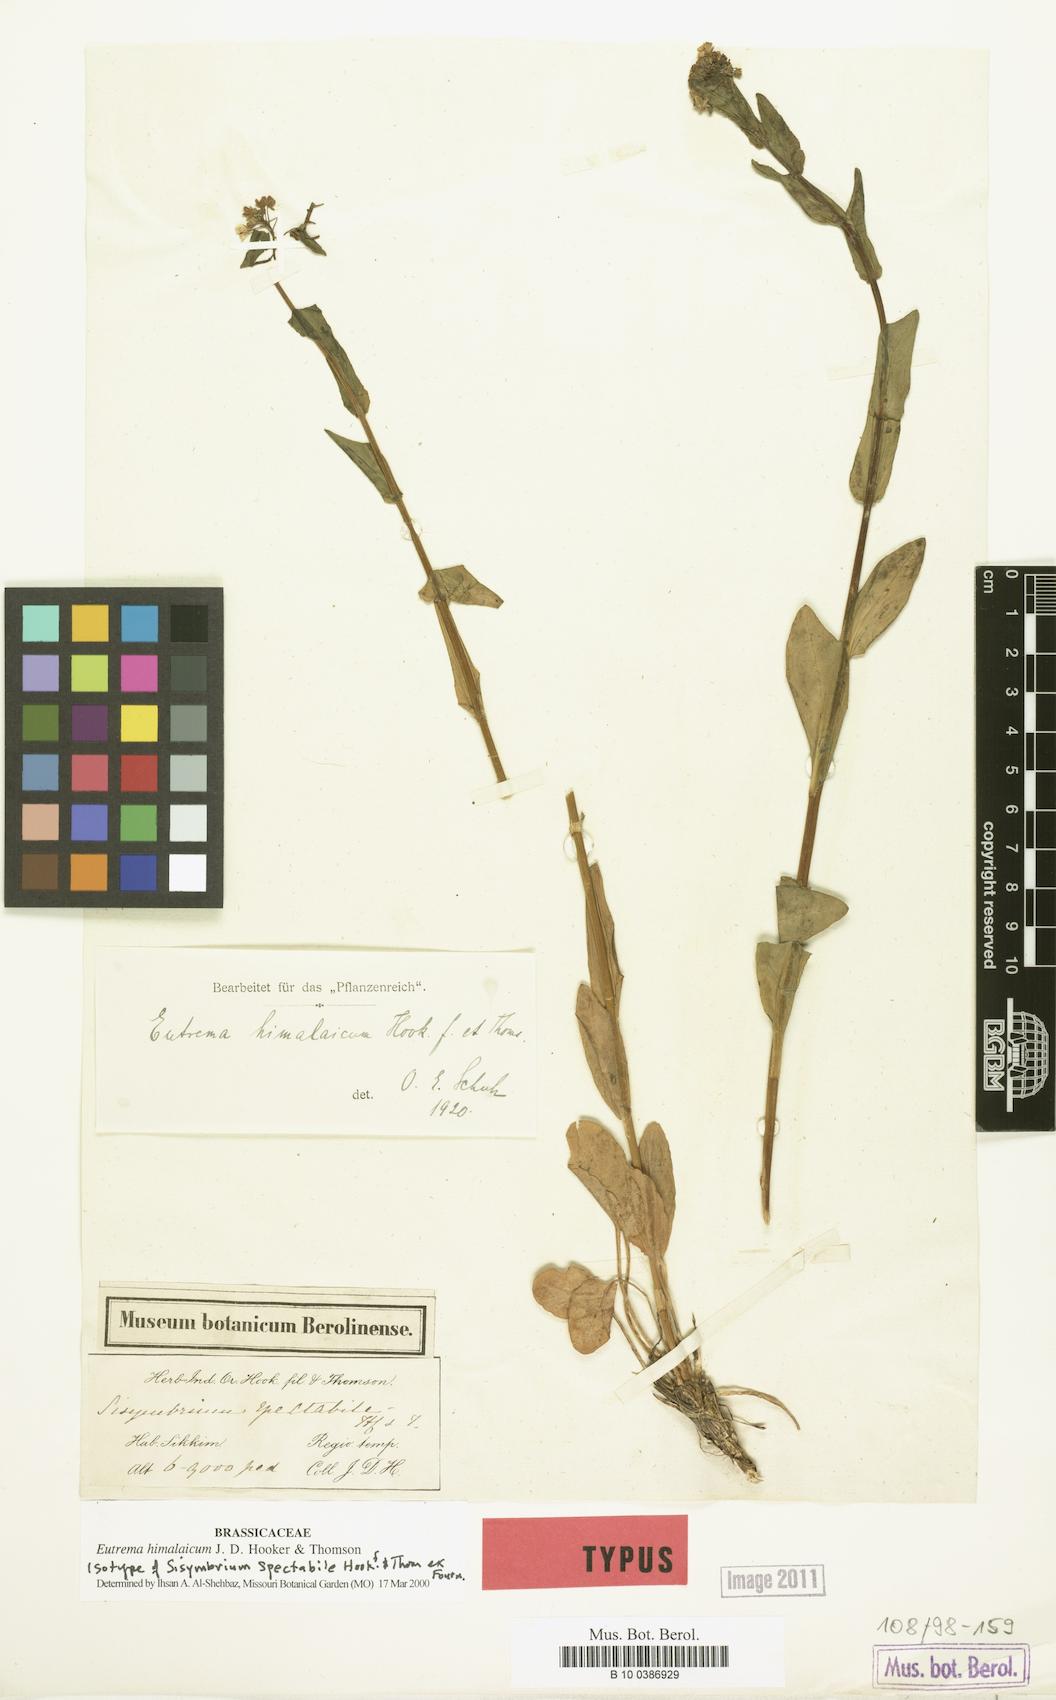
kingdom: Plantae
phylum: Tracheophyta
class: Magnoliopsida
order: Brassicales
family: Brassicaceae
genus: Eutrema
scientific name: Eutrema himalaicum
